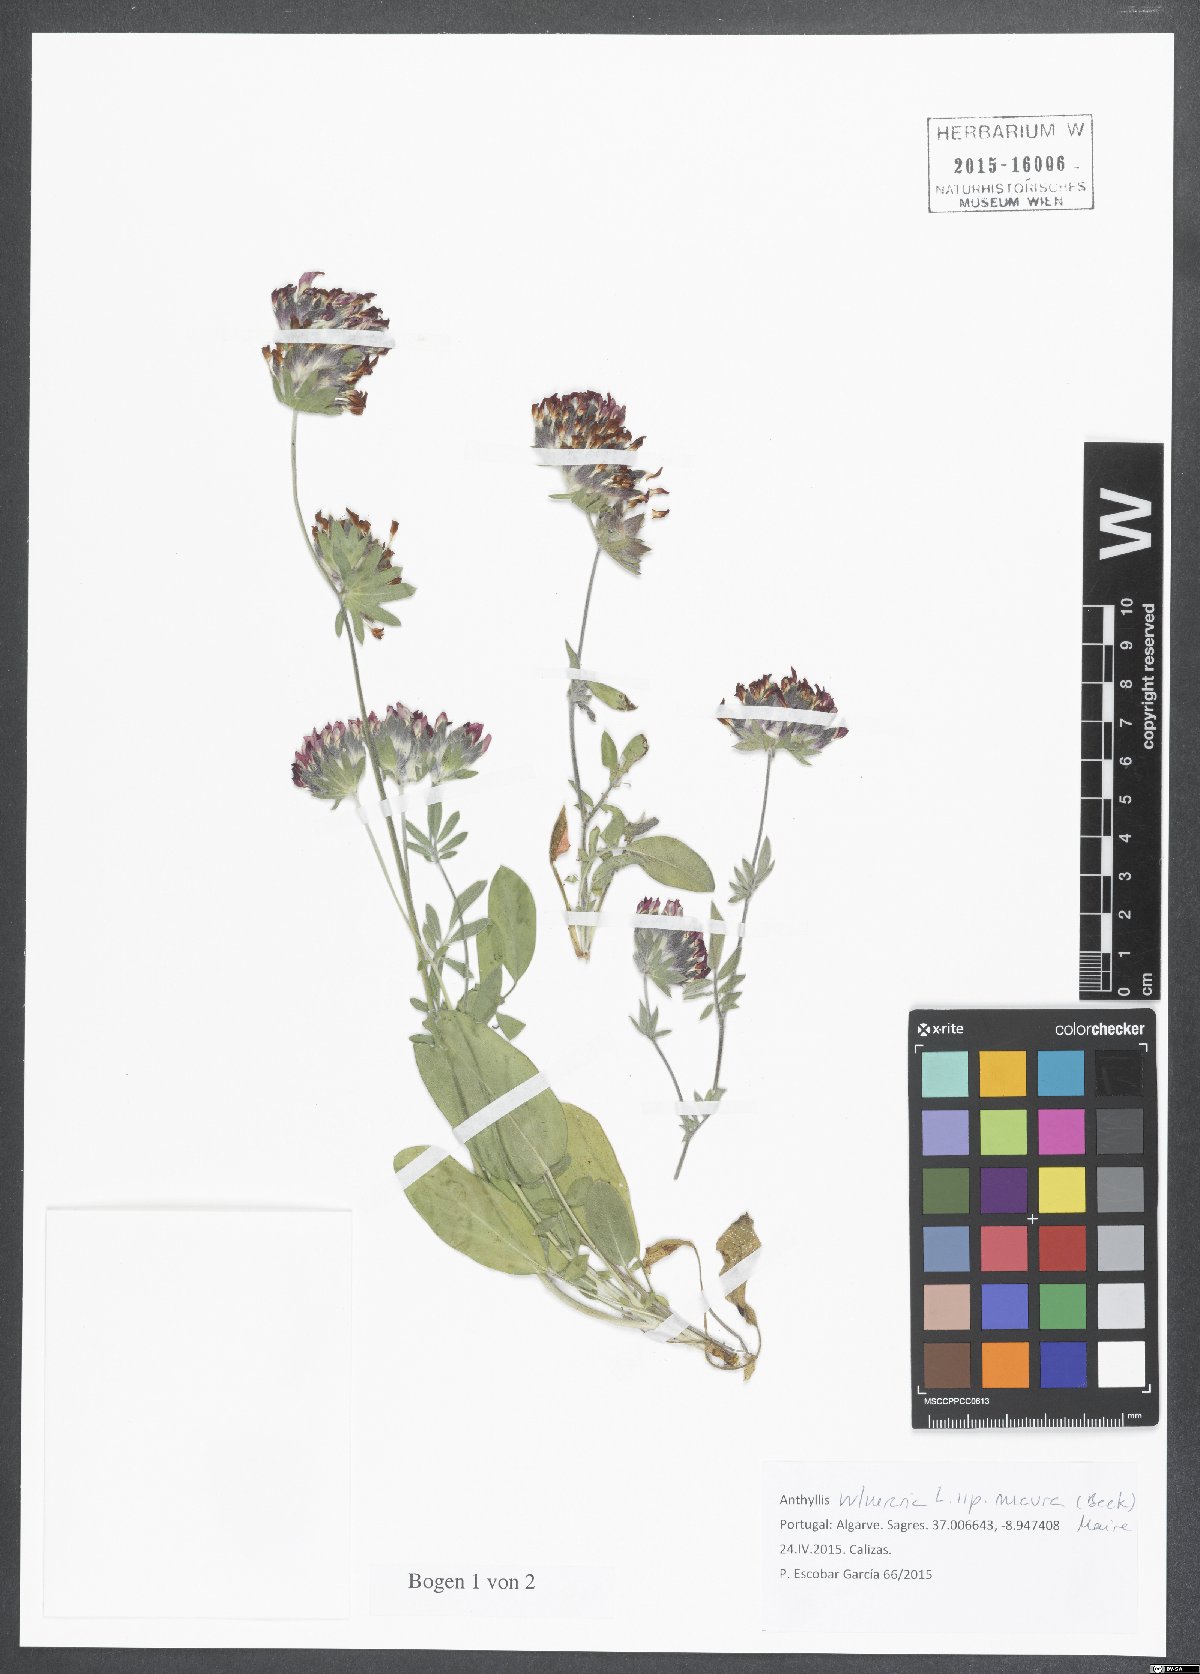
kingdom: Plantae
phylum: Tracheophyta
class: Magnoliopsida
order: Fabales
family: Fabaceae
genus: Anthyllis
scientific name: Anthyllis vulneraria
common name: Kidney vetch
